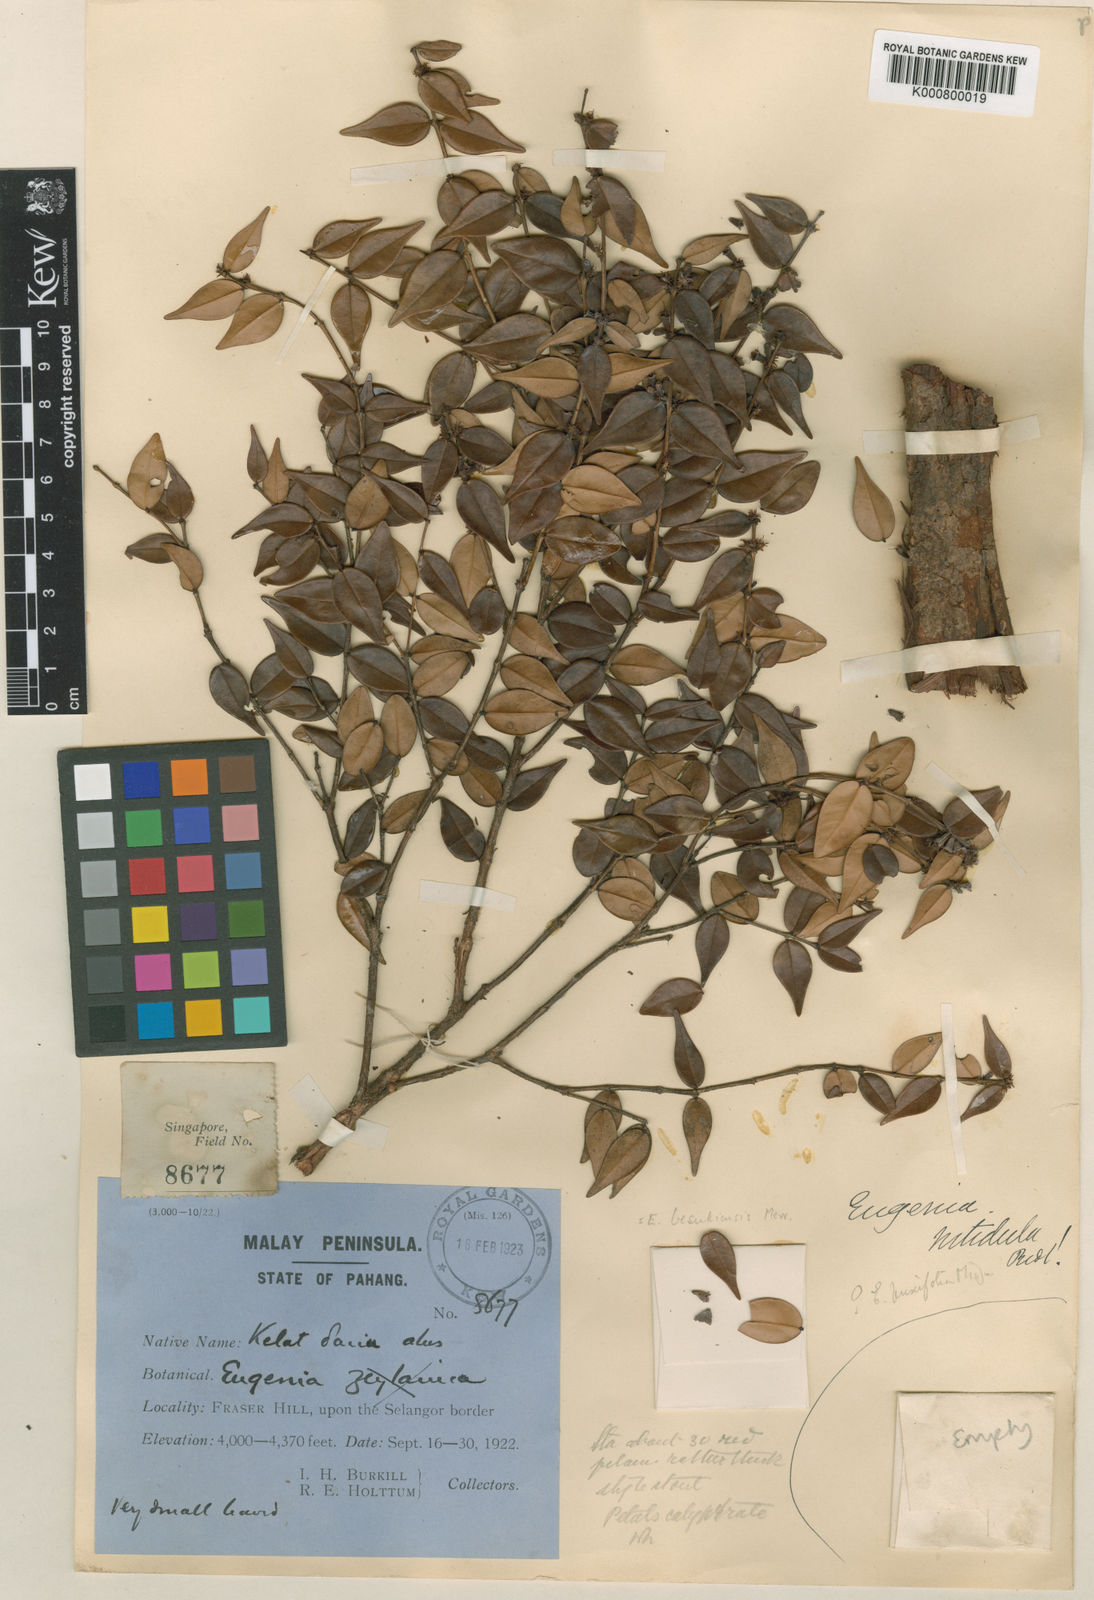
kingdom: Plantae
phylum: Tracheophyta
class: Magnoliopsida
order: Myrtales
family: Myrtaceae
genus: Syzygium
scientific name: Syzygium nitidulum
